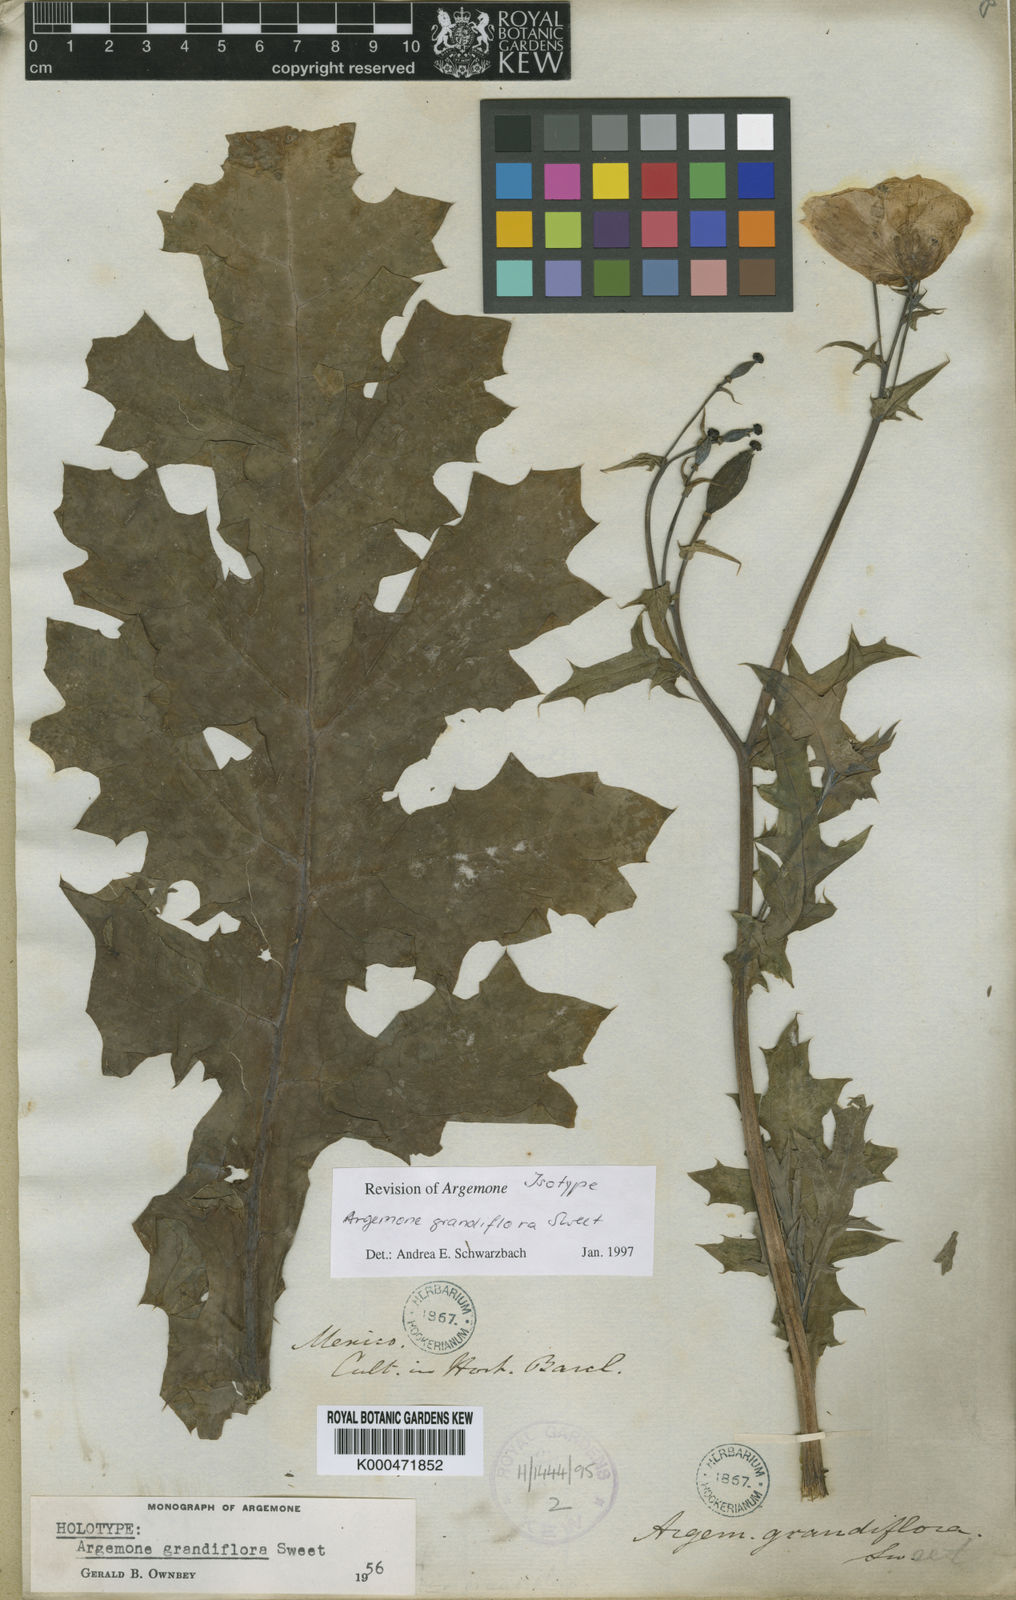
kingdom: Plantae
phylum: Tracheophyta
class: Magnoliopsida
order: Ranunculales
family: Papaveraceae
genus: Argemone
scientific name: Argemone grandiflora
